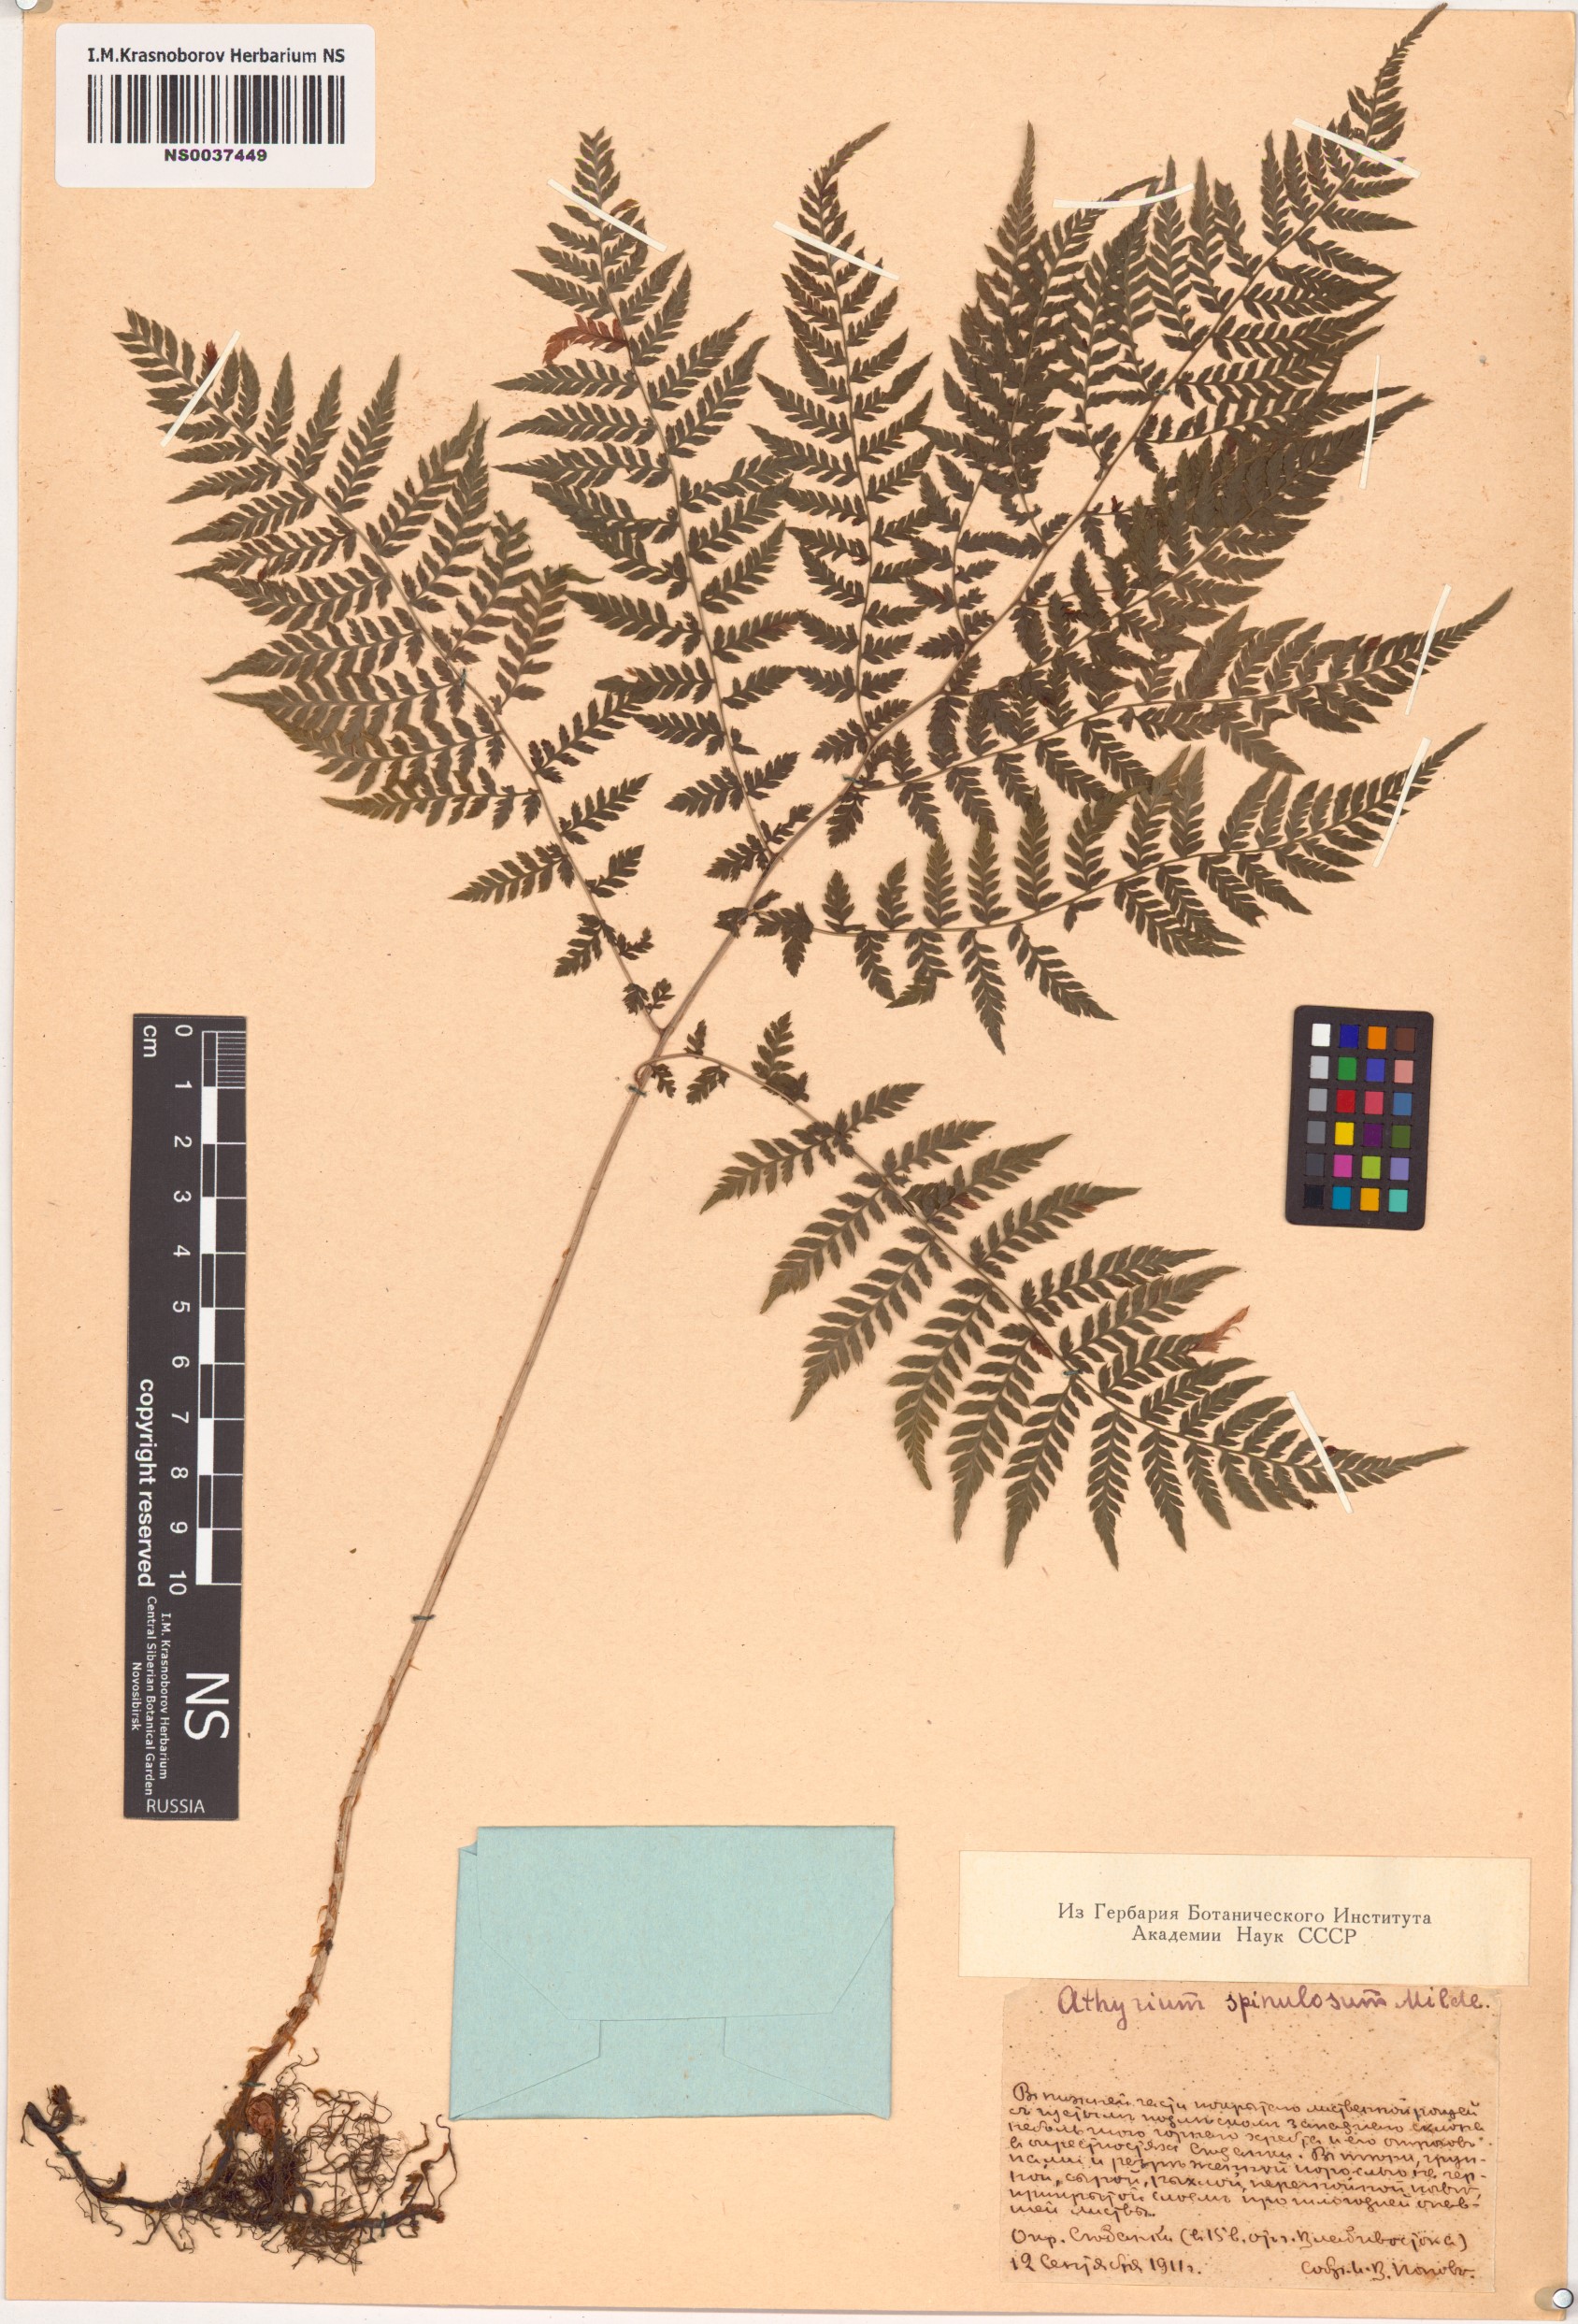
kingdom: Plantae
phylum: Tracheophyta
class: Polypodiopsida
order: Polypodiales
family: Athyriaceae
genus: Athyrium
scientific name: Athyrium spinulosum
